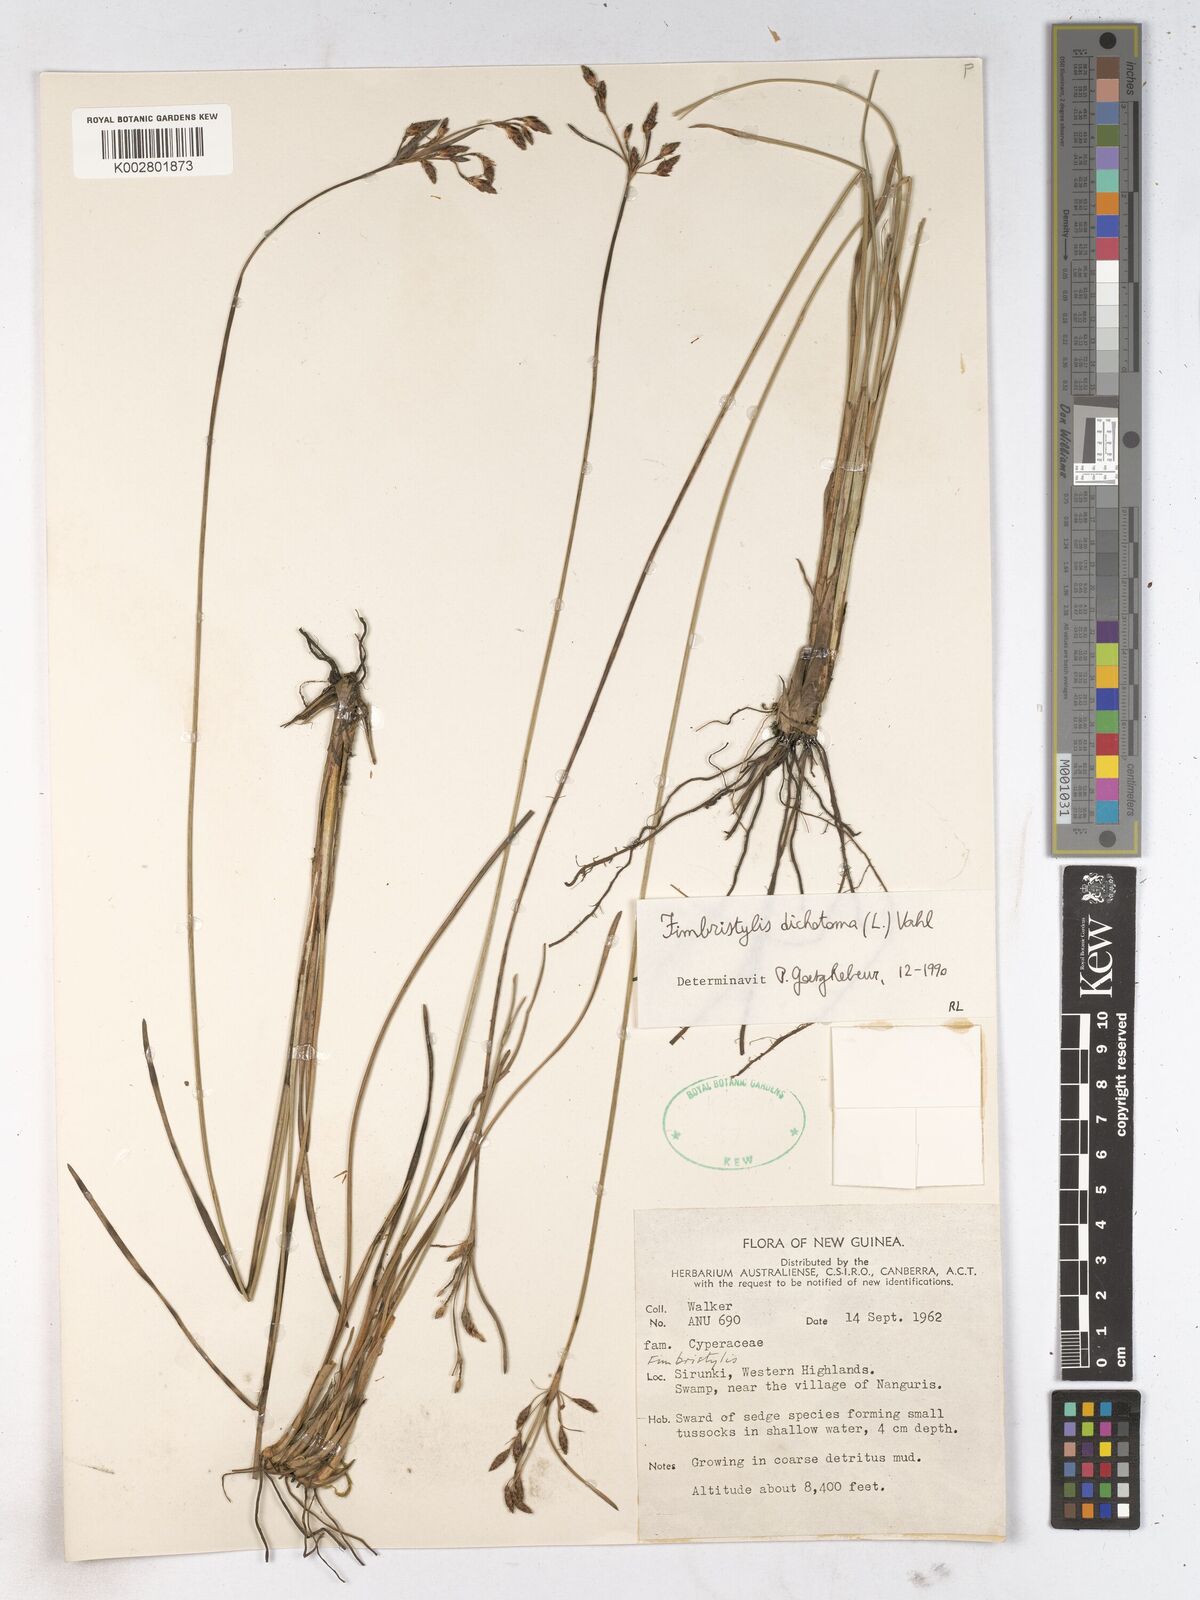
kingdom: Plantae
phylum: Tracheophyta
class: Liliopsida
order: Poales
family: Cyperaceae
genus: Fimbristylis
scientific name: Fimbristylis dichotoma
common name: Forked fimbry
